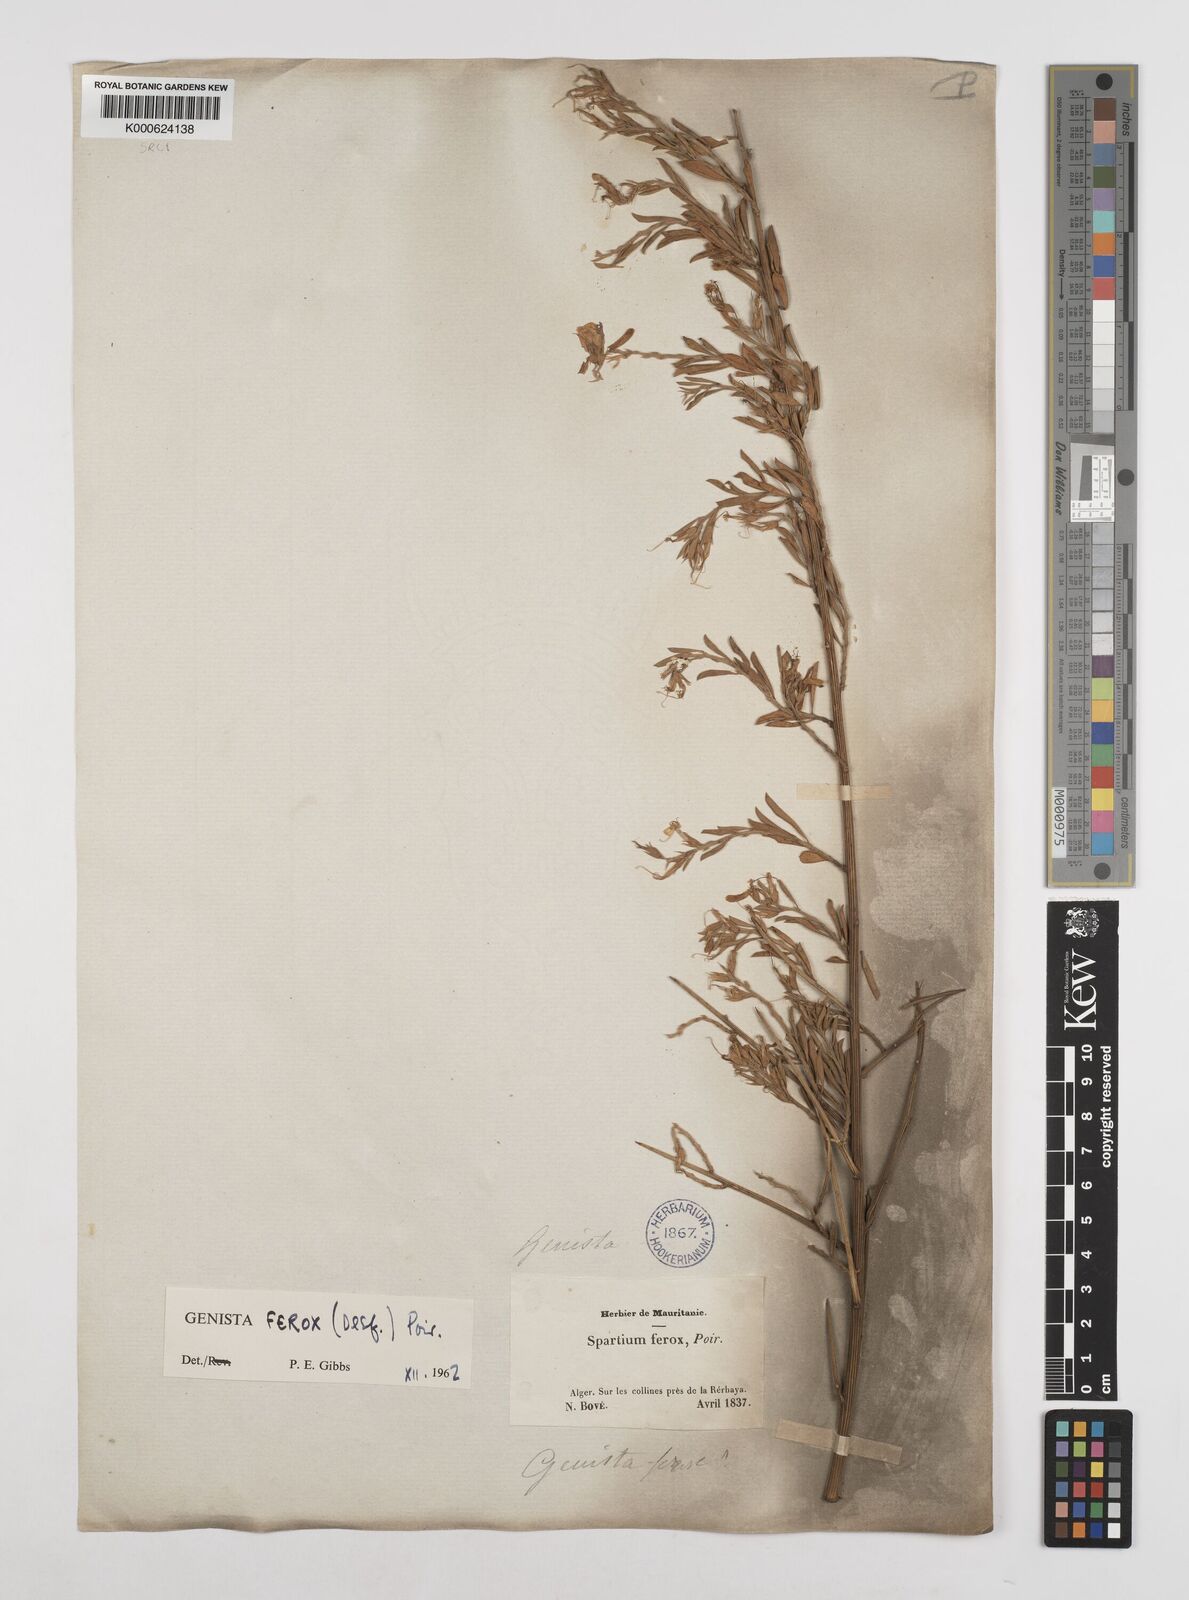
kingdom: Plantae
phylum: Tracheophyta
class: Magnoliopsida
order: Fabales
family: Fabaceae
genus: Genista
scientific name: Genista ferox
